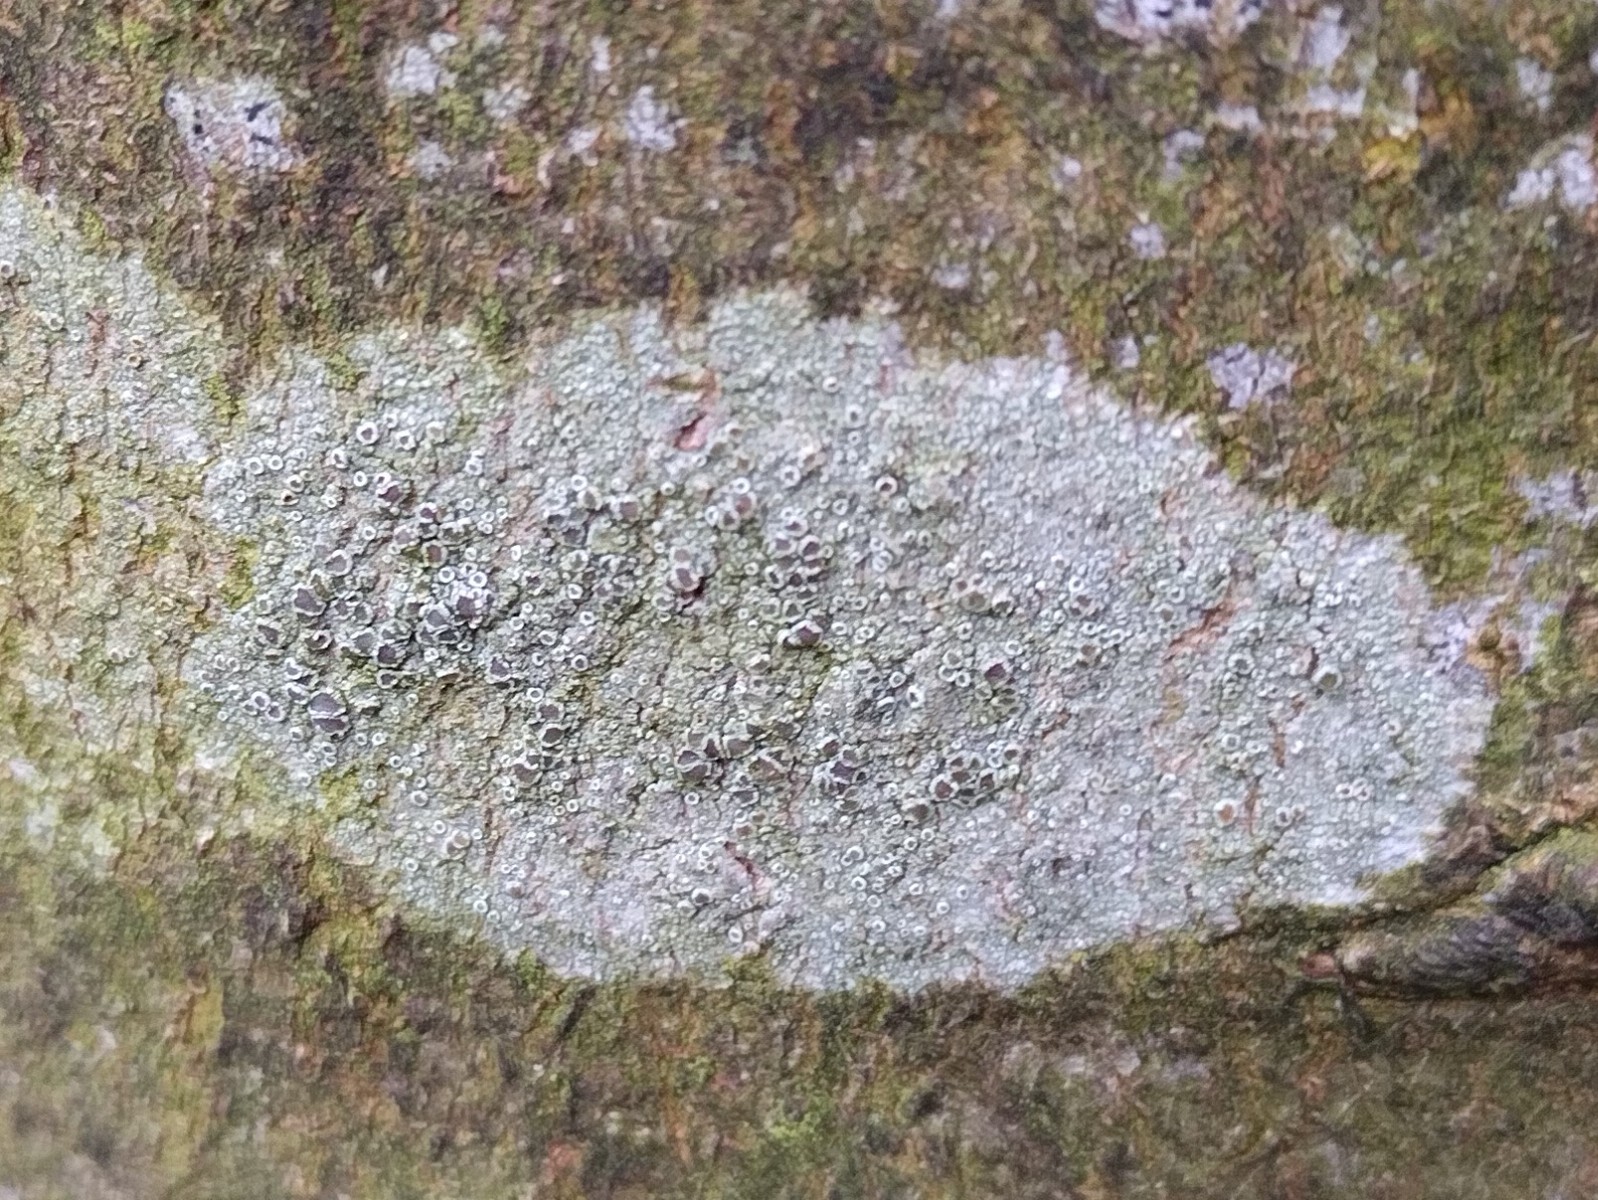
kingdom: Fungi
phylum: Ascomycota
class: Lecanoromycetes
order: Lecanorales
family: Lecanoraceae
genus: Lecanora
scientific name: Lecanora chlarotera
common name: brun kantskivelav
